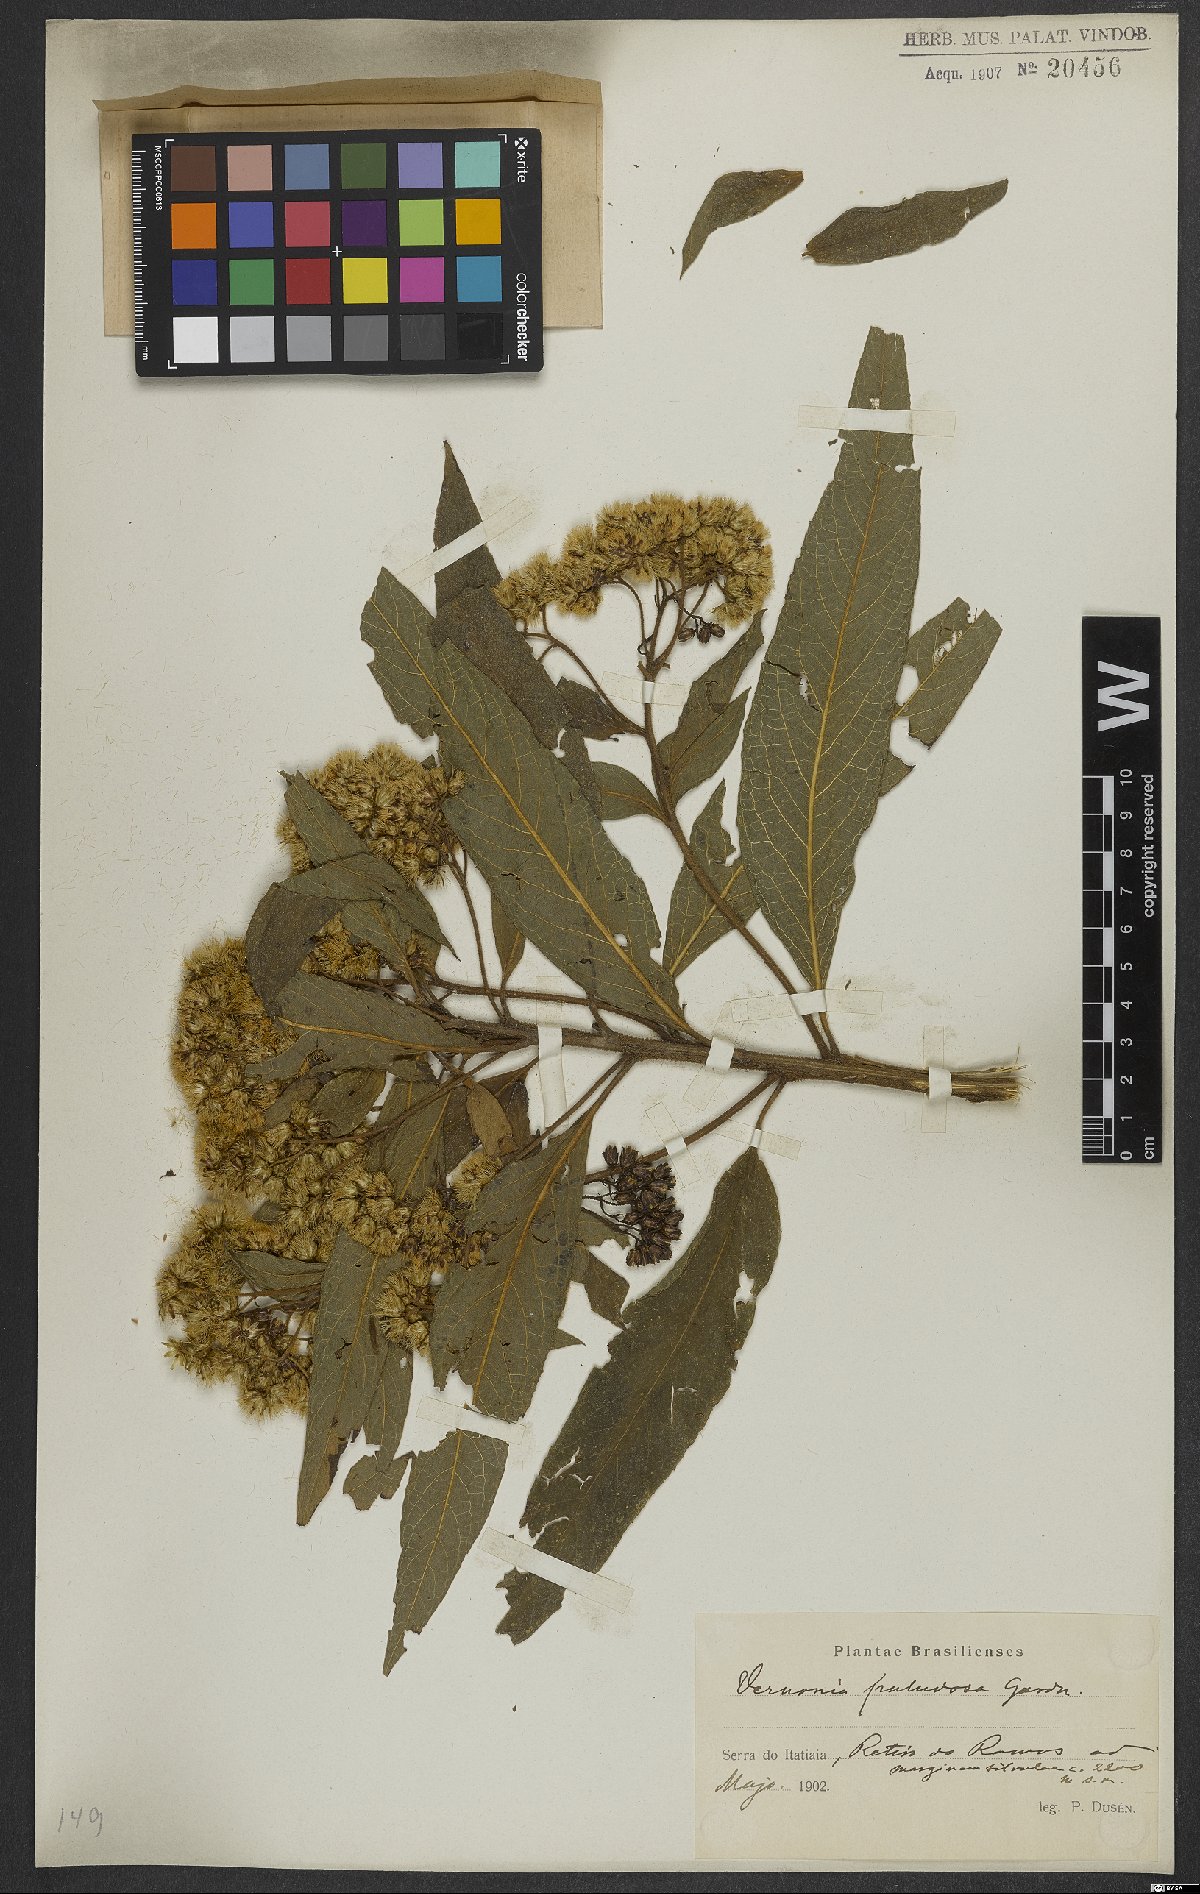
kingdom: Plantae
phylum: Tracheophyta
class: Magnoliopsida
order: Asterales
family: Asteraceae
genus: Vernonanthura
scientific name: Vernonanthura paludosa
